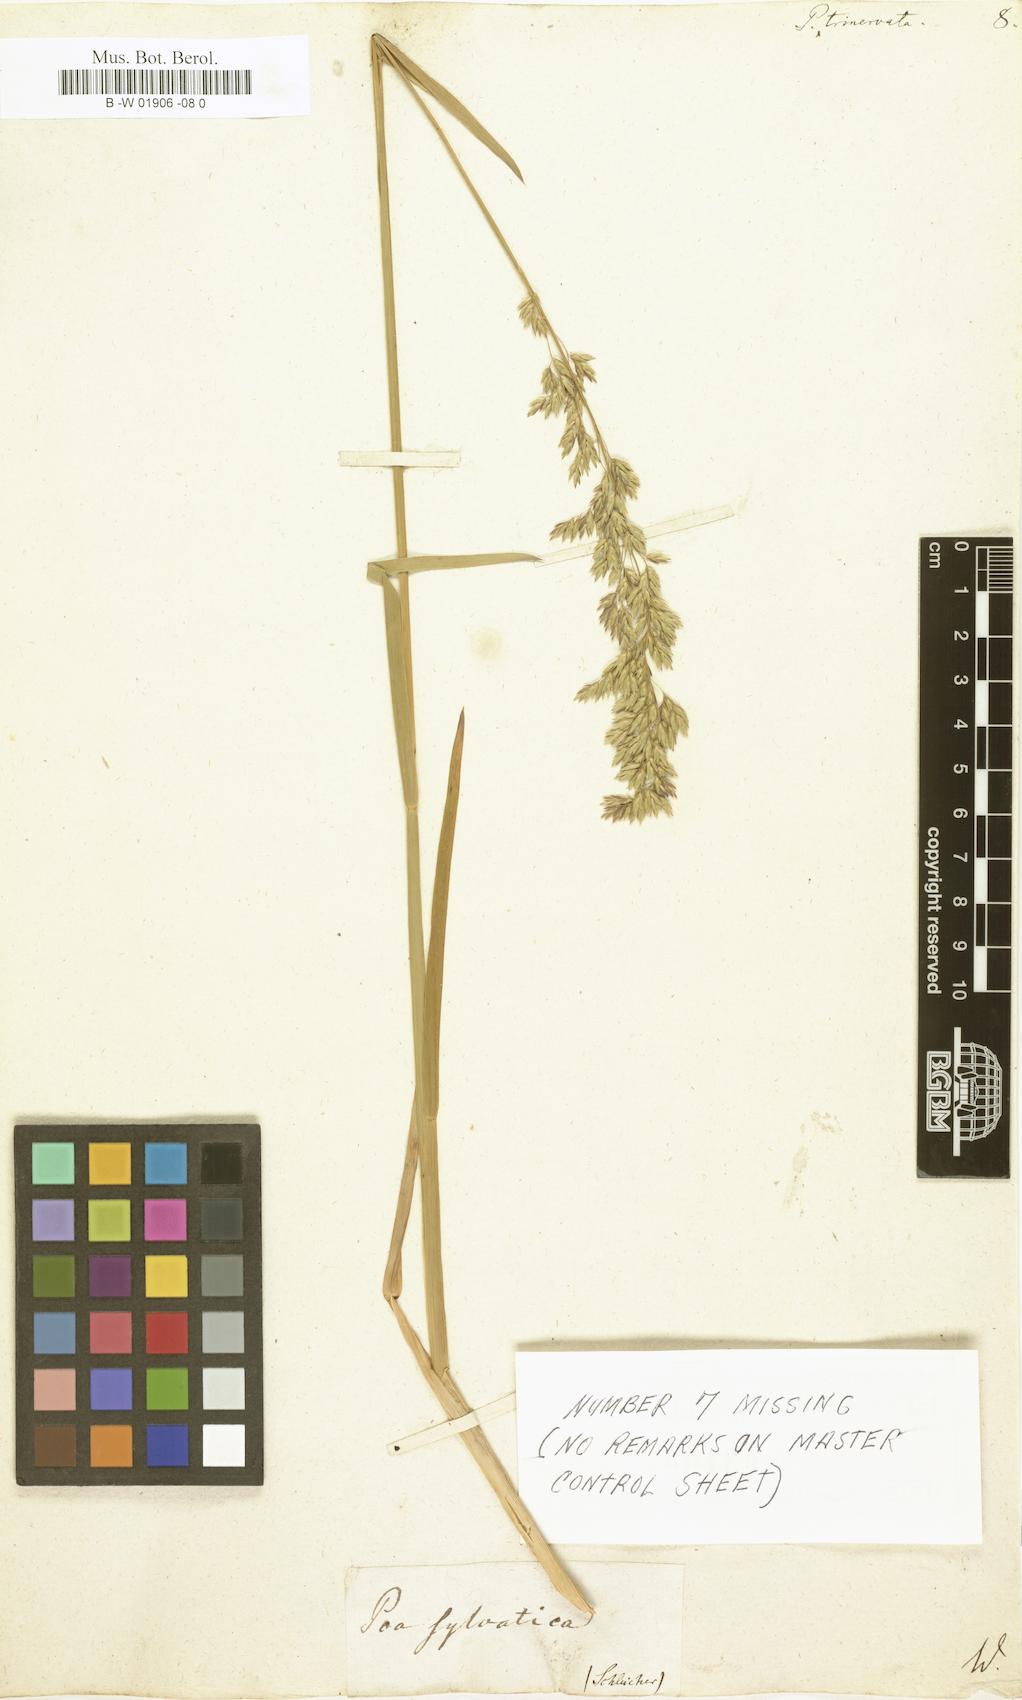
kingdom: Plantae
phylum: Tracheophyta
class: Liliopsida
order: Poales
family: Poaceae
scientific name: Poaceae
